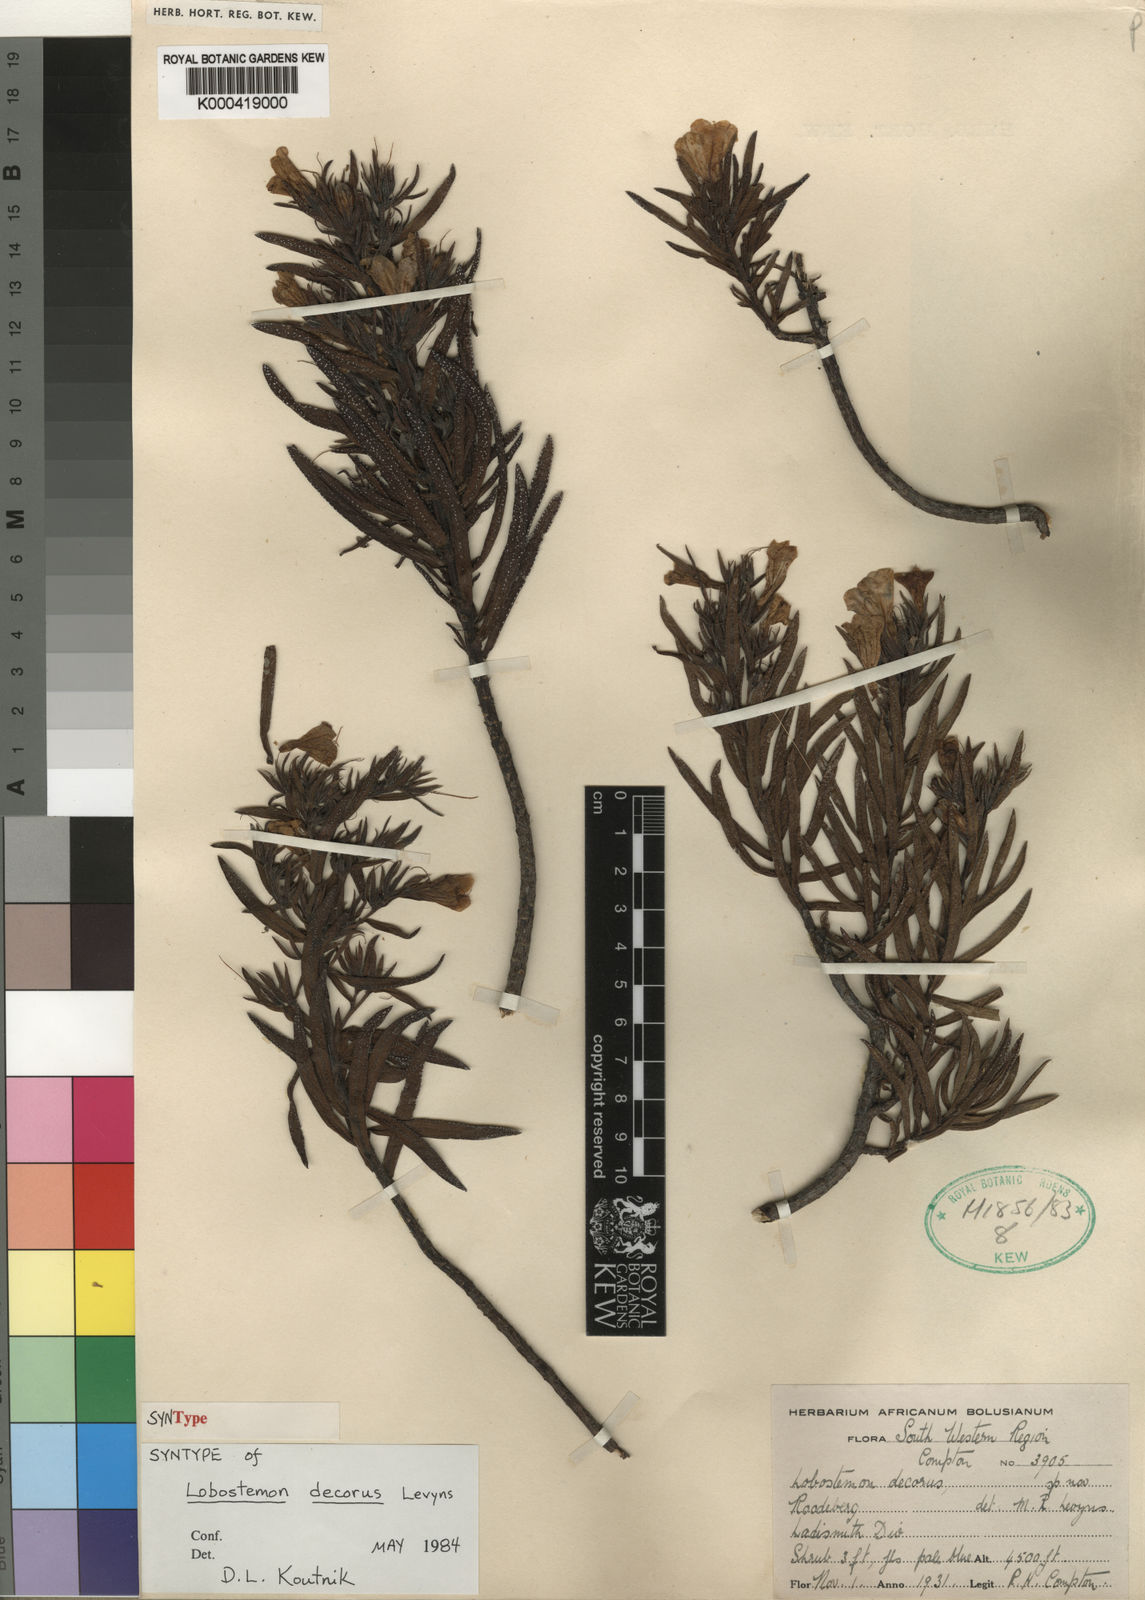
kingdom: Plantae
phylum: Tracheophyta
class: Magnoliopsida
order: Boraginales
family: Boraginaceae
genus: Lobostemon
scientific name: Lobostemon decorus
